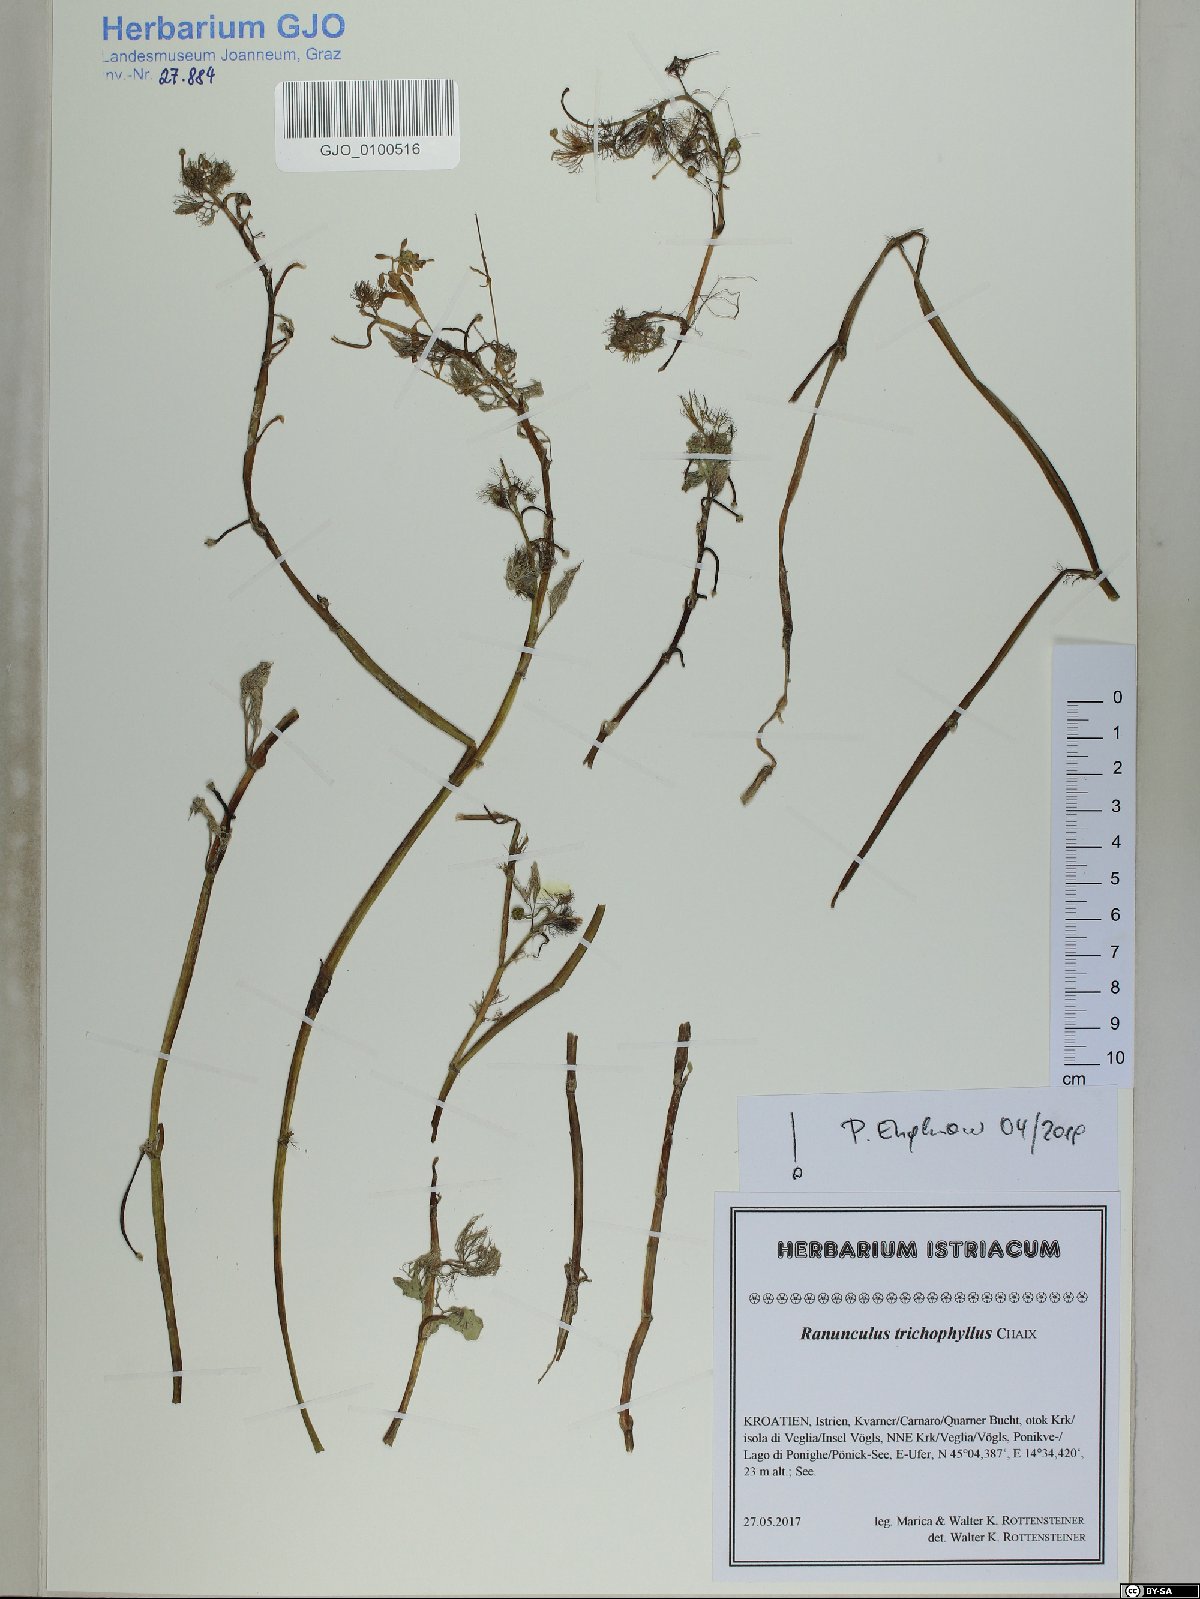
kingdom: Plantae
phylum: Tracheophyta
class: Magnoliopsida
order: Ranunculales
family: Ranunculaceae
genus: Ranunculus
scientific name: Ranunculus trichophyllus
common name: Thread-leaved water-crowfoot
